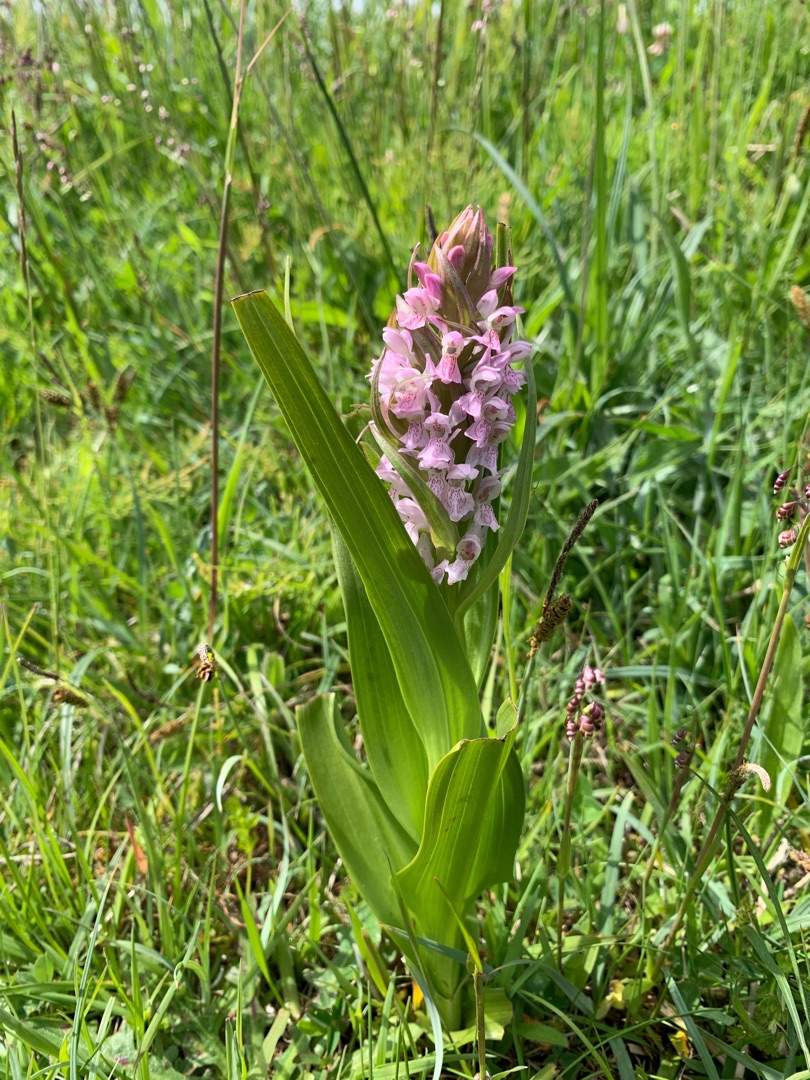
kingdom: Plantae
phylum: Tracheophyta
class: Liliopsida
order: Asparagales
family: Orchidaceae
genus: Dactylorhiza
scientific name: Dactylorhiza incarnata
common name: Kødfarvet gøgeurt
